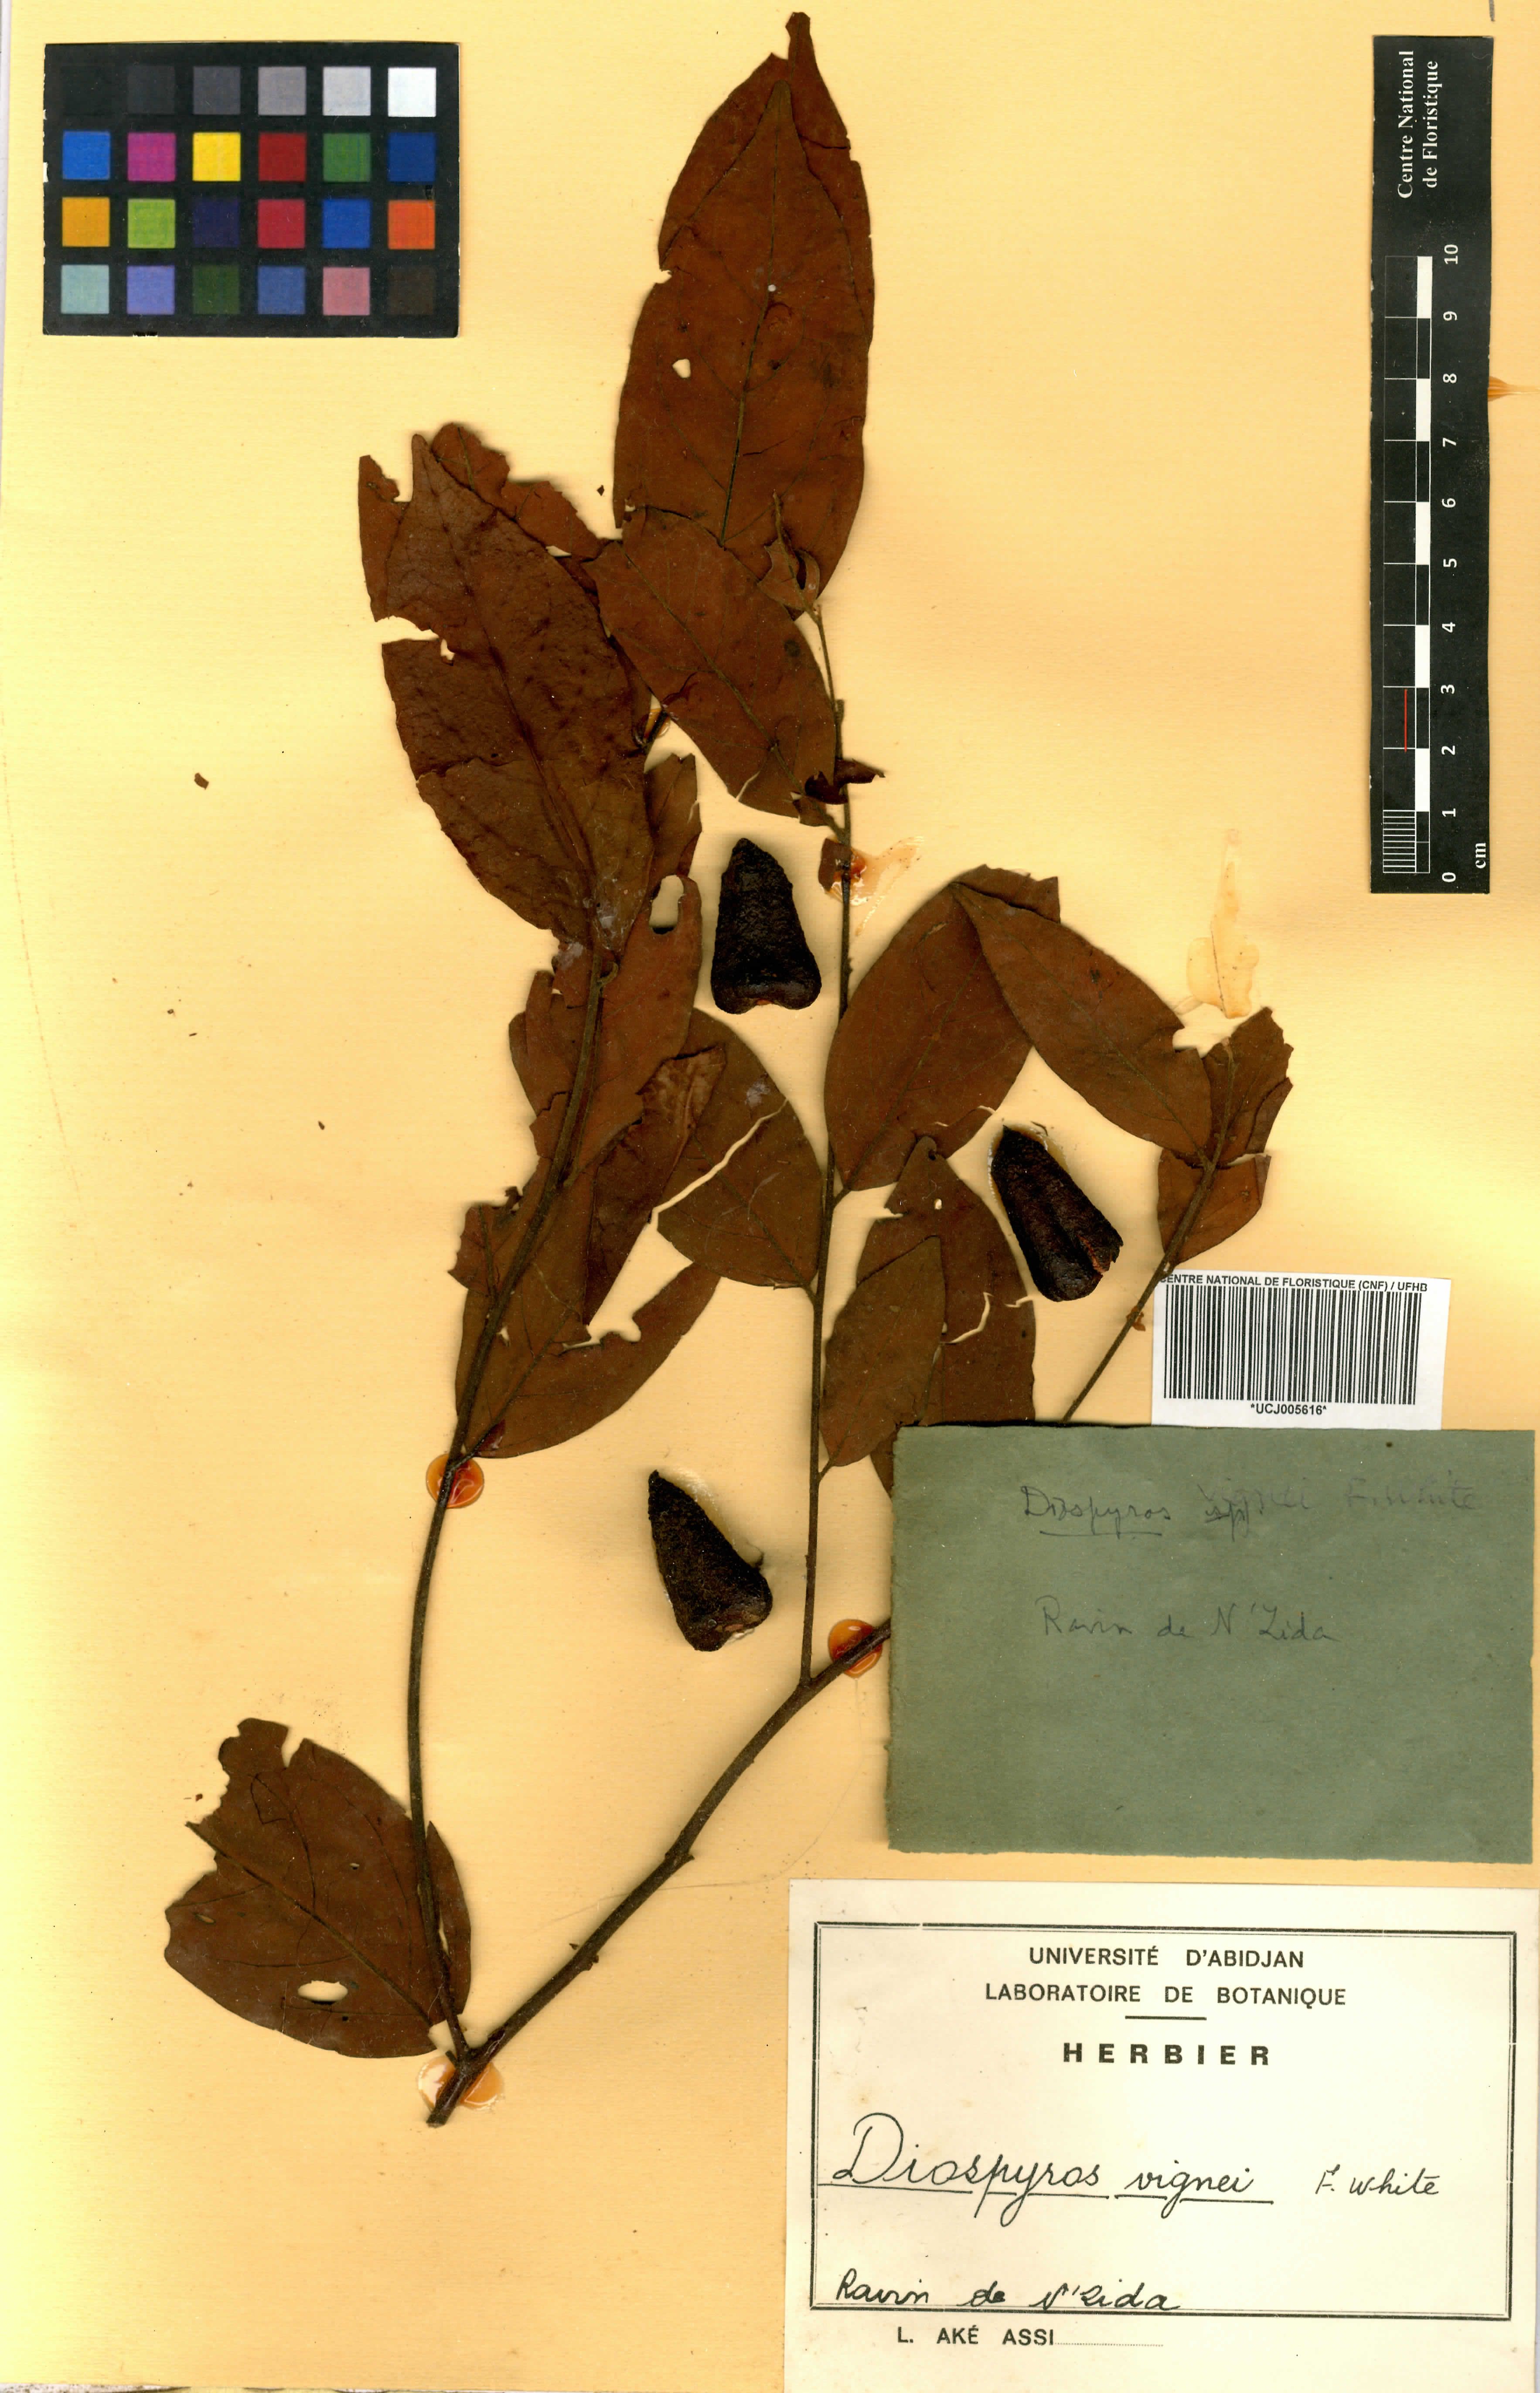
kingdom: Plantae
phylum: Tracheophyta
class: Magnoliopsida
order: Ericales
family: Ebenaceae
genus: Diospyros
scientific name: Diospyros vignei
